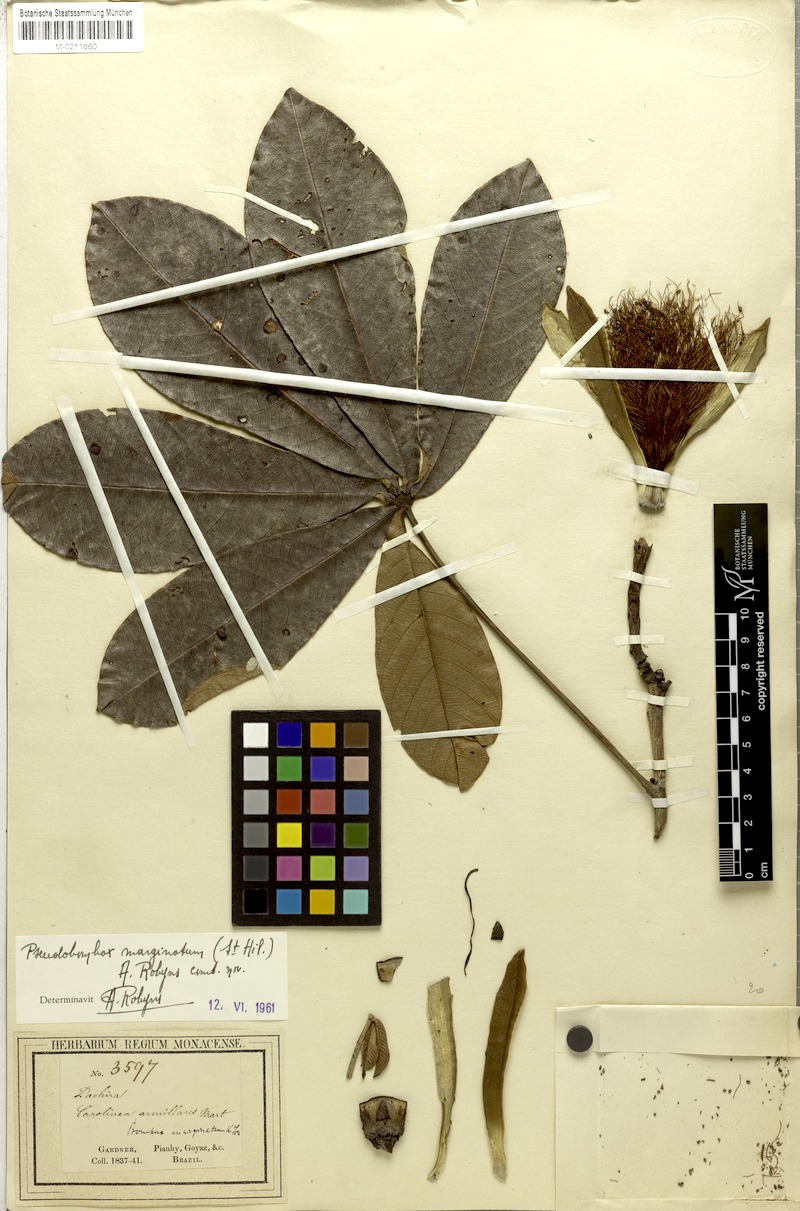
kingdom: Plantae
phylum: Tracheophyta
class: Magnoliopsida
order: Malvales
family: Malvaceae
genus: Pseudobombax
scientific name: Pseudobombax marginatum
